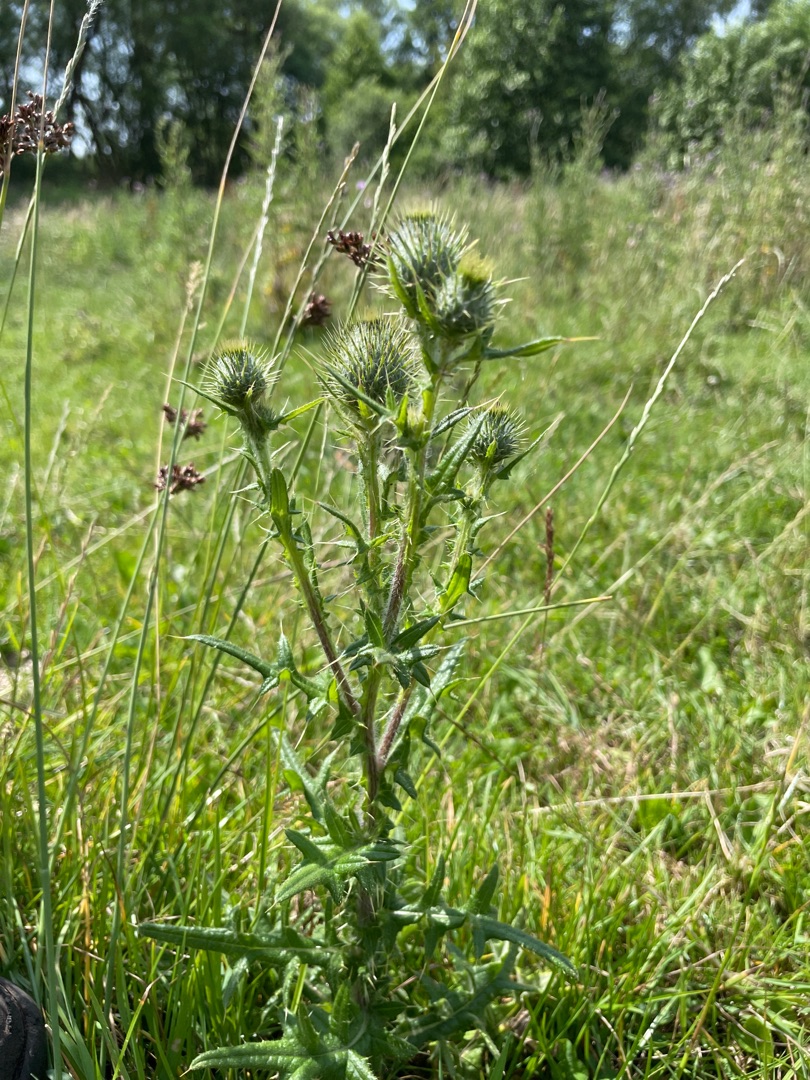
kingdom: Plantae
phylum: Tracheophyta
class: Magnoliopsida
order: Asterales
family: Asteraceae
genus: Cirsium
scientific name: Cirsium vulgare
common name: Horse-tidsel
